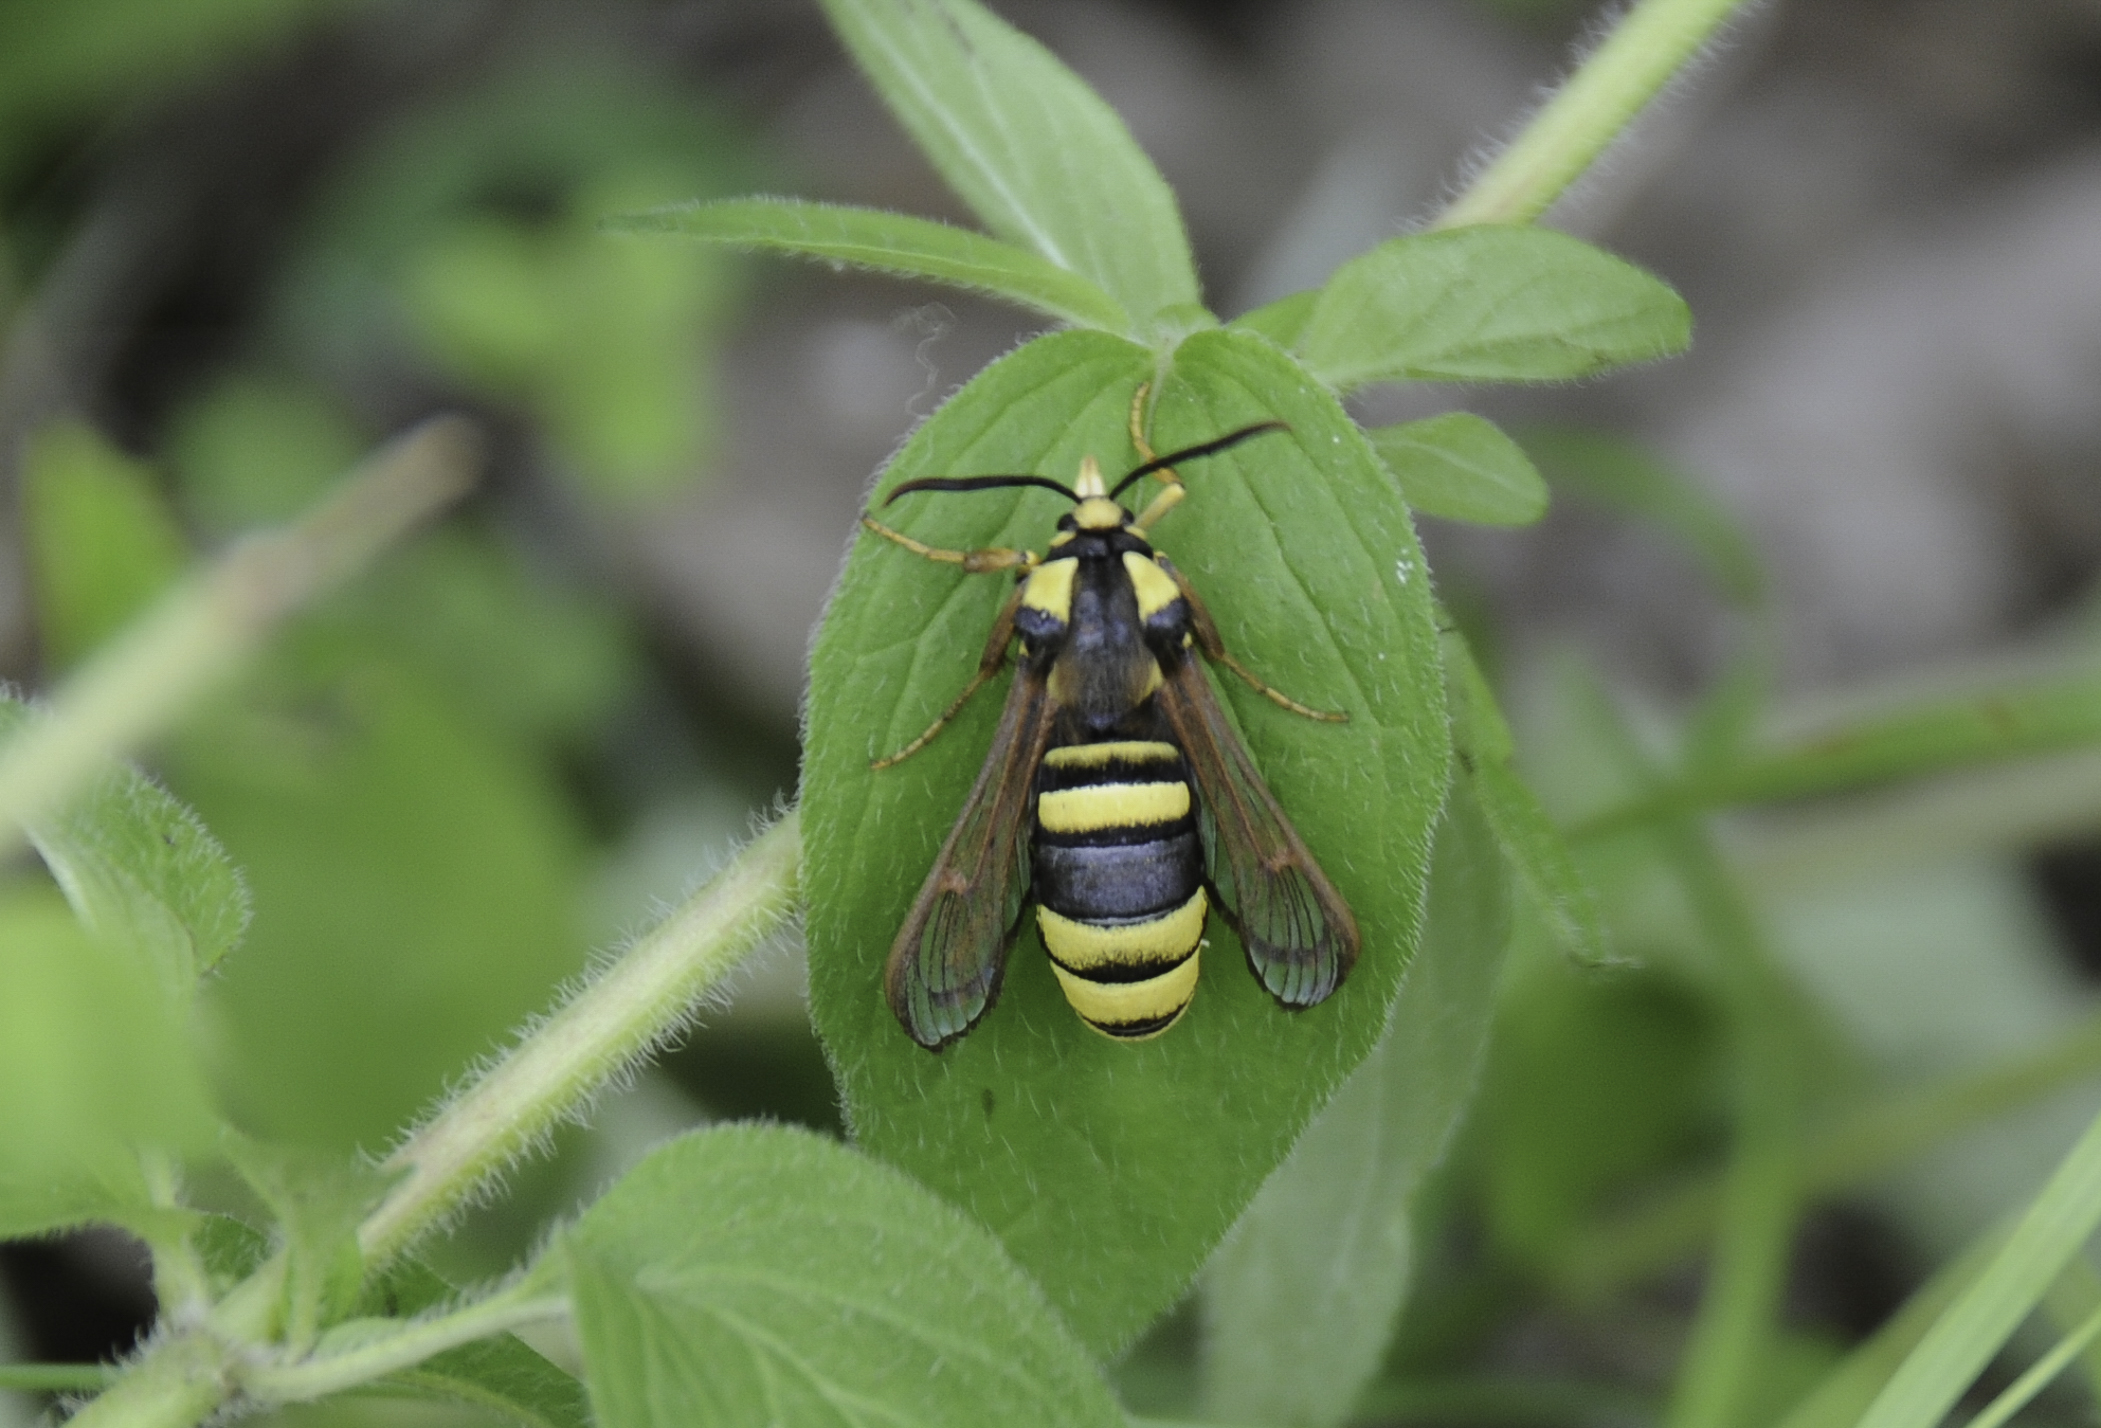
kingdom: Animalia
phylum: Arthropoda
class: Insecta
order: Lepidoptera
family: Sesiidae
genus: Sesia
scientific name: Sesia apiformis
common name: Hornet moth
